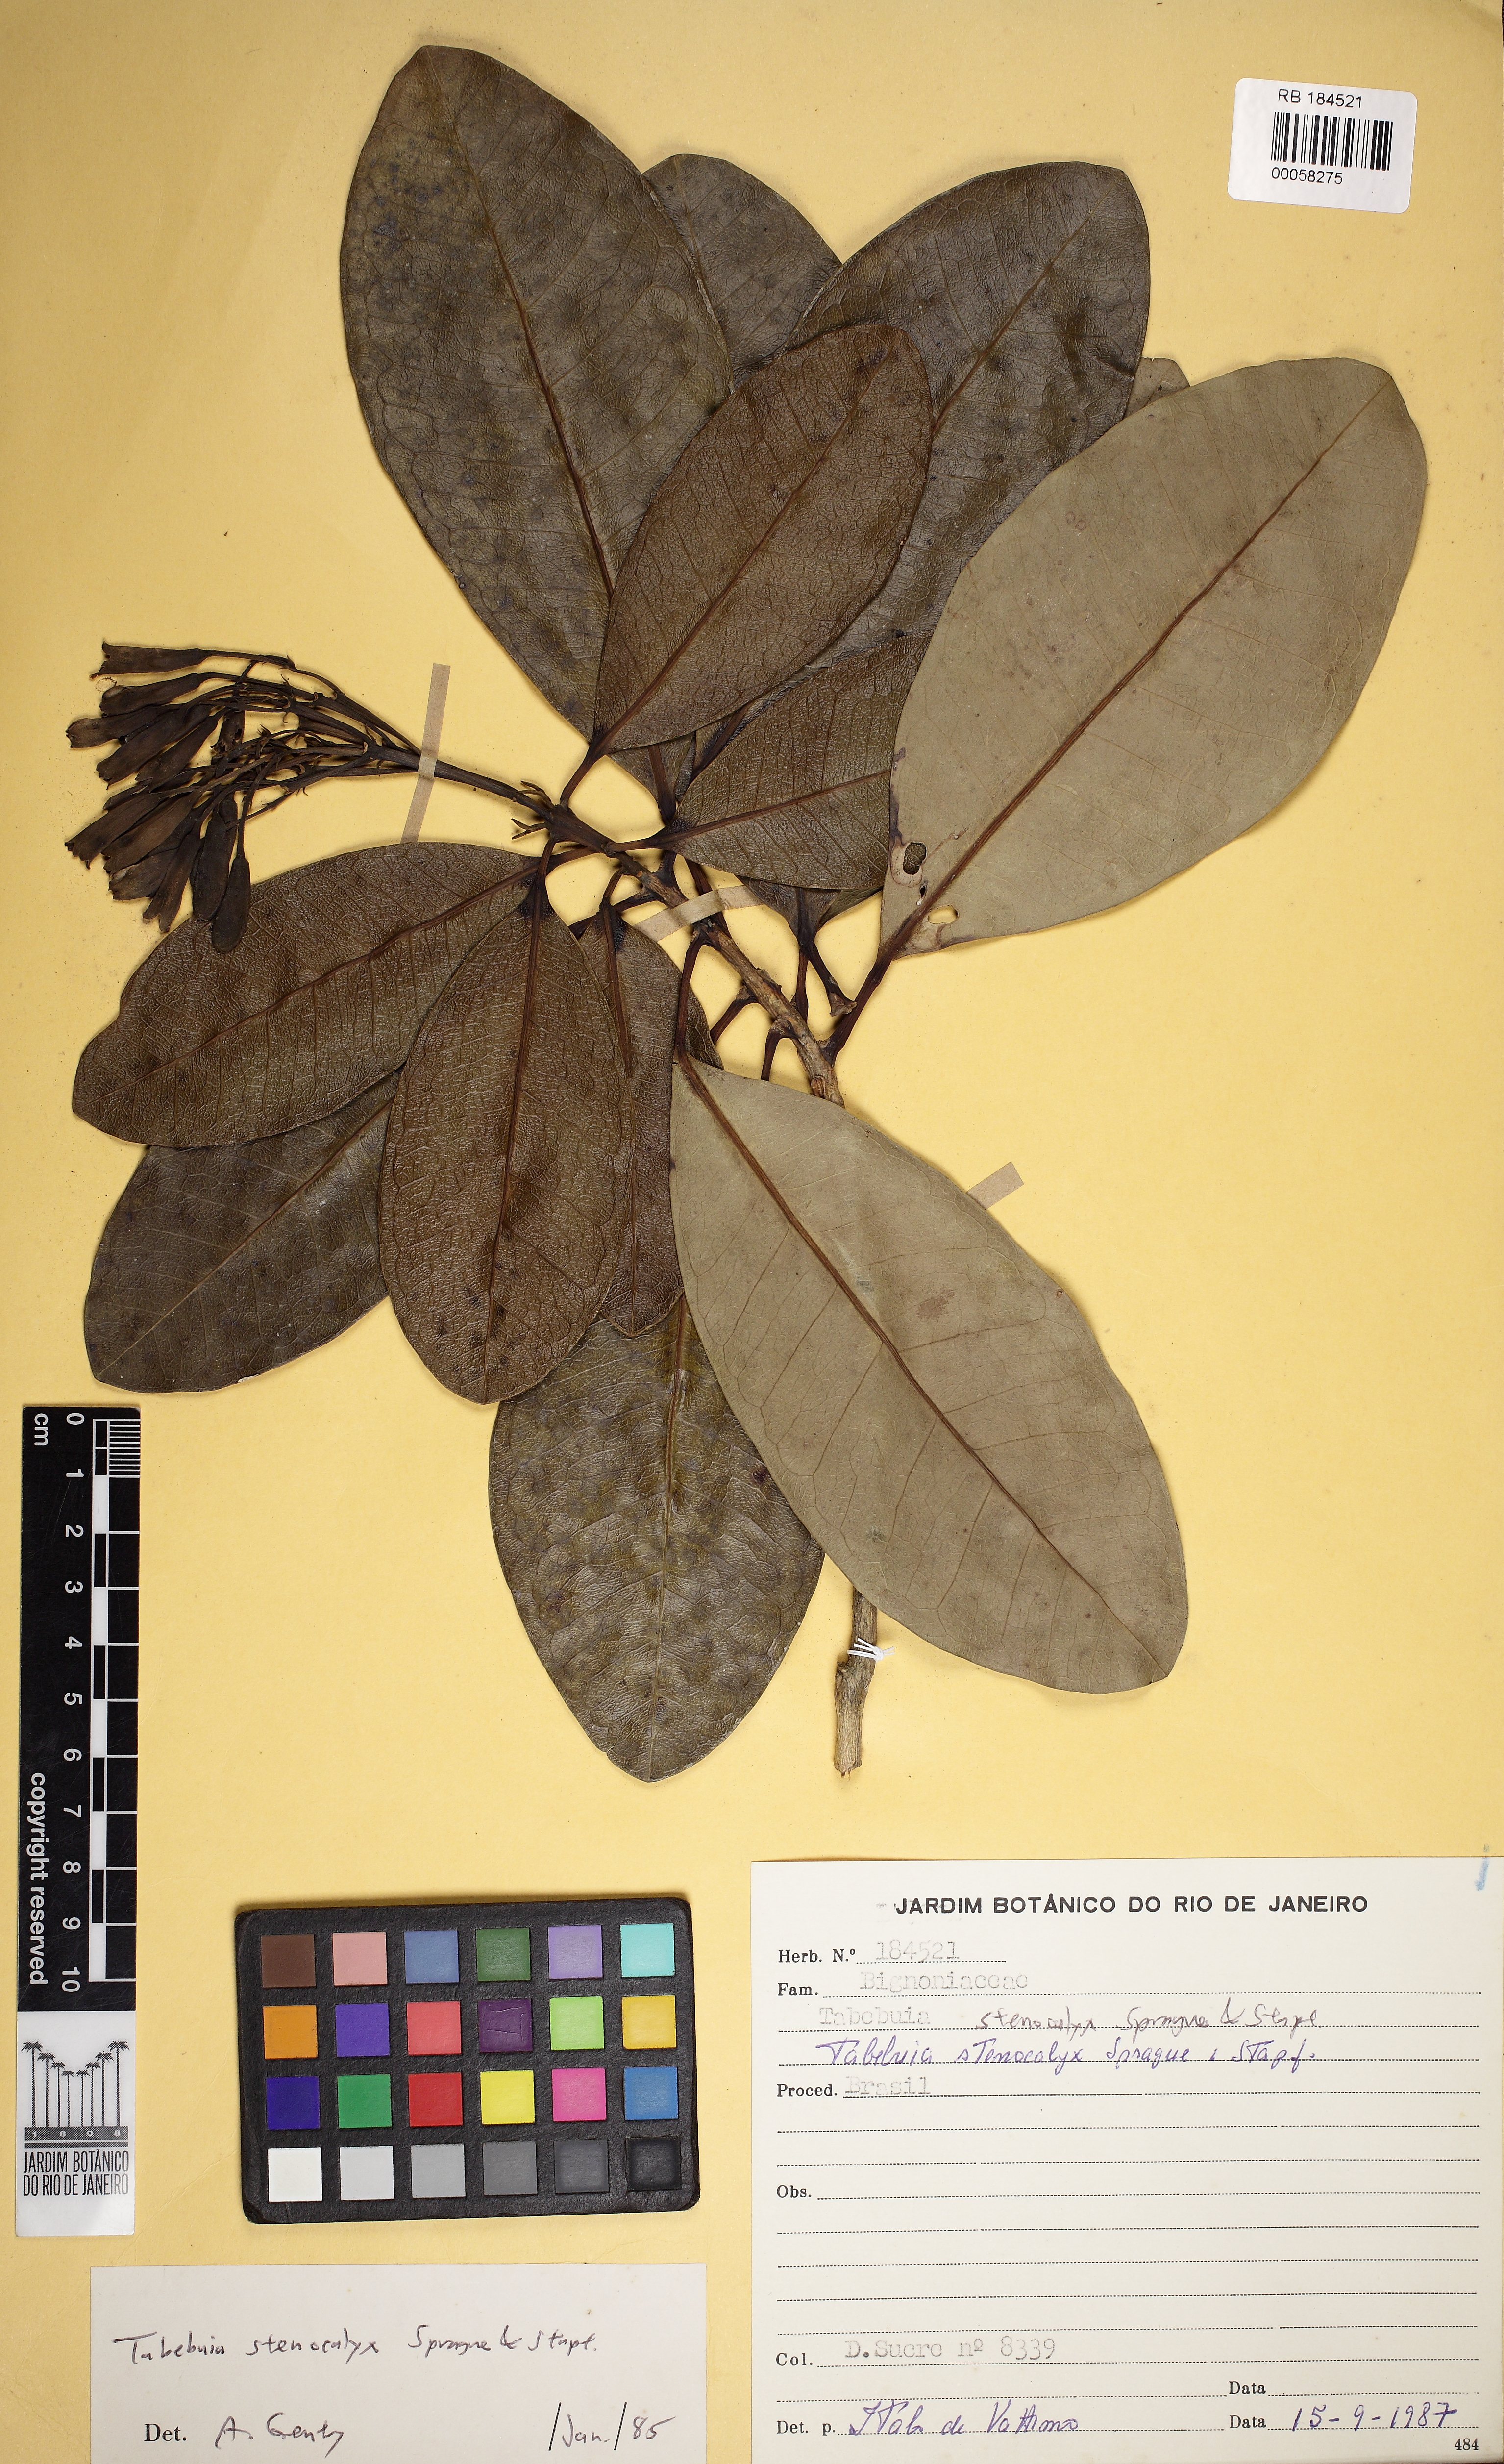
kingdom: Plantae
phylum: Tracheophyta
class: Magnoliopsida
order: Lamiales
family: Bignoniaceae
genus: Tabebuia
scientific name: Tabebuia stenocalyx
